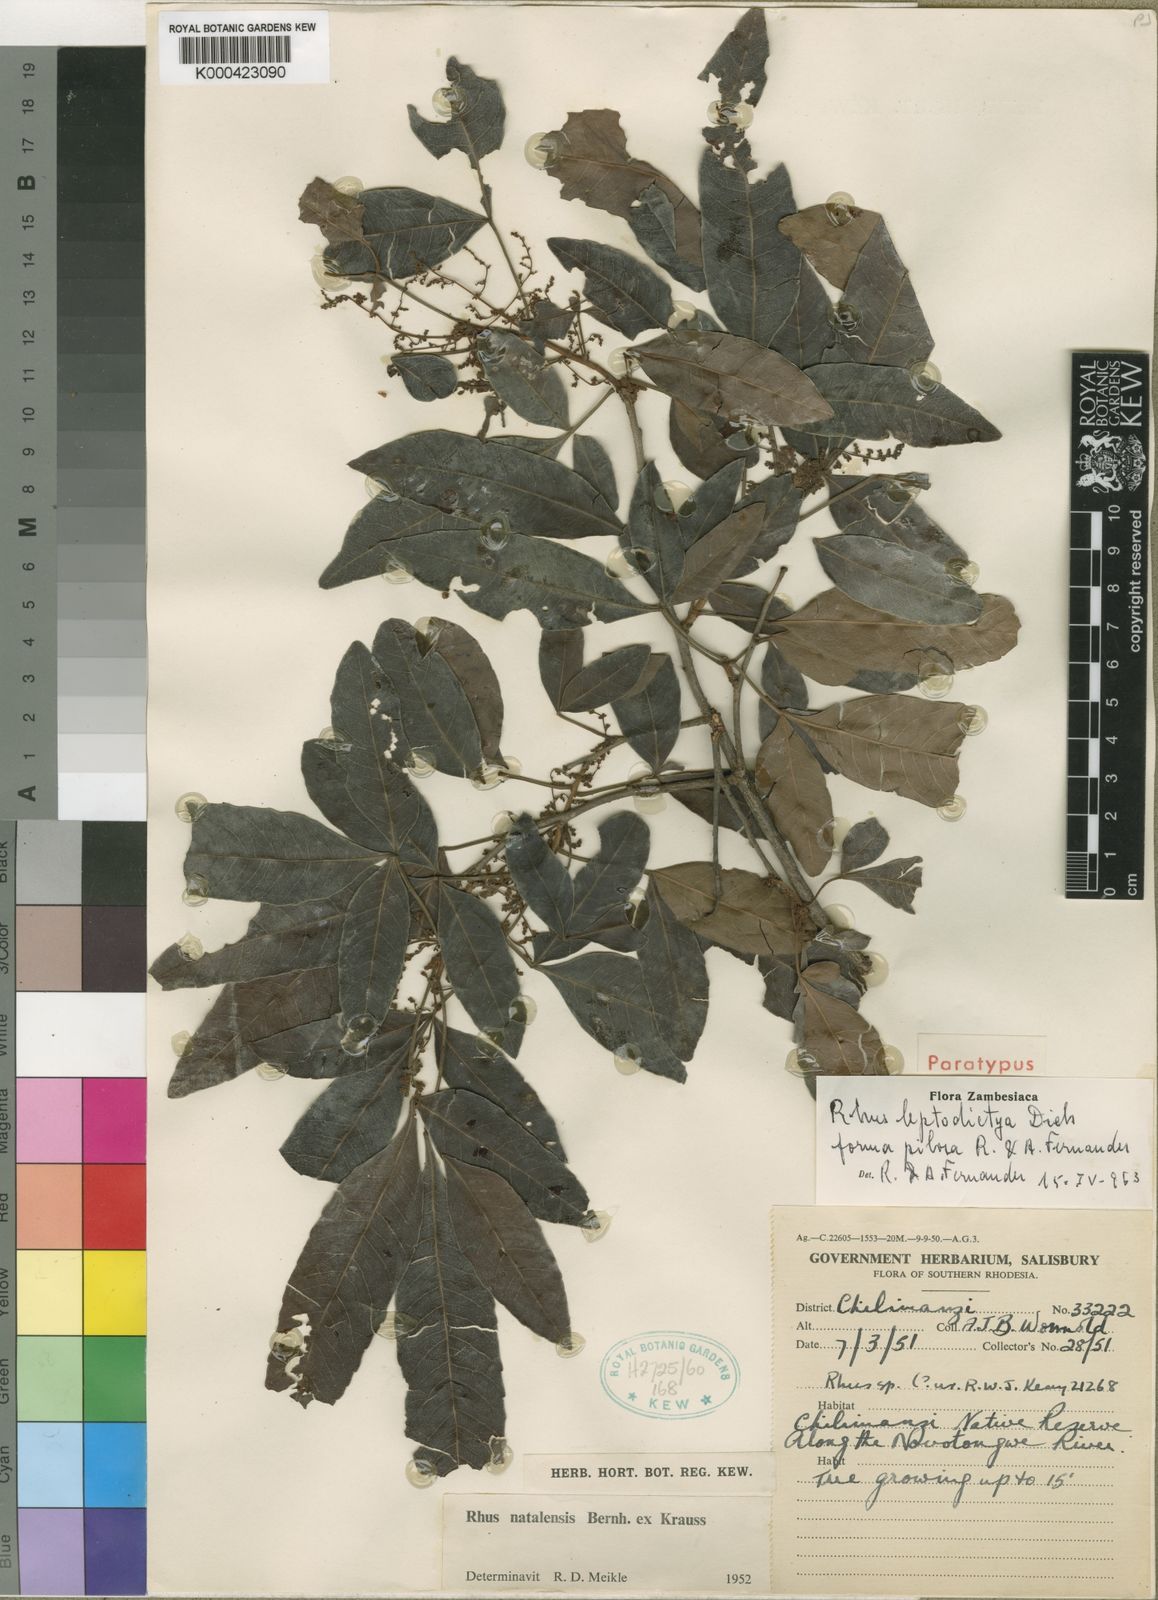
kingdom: Plantae
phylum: Tracheophyta
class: Magnoliopsida
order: Sapindales
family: Anacardiaceae
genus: Searsia
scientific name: Searsia leptodictya
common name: Mountain karee
